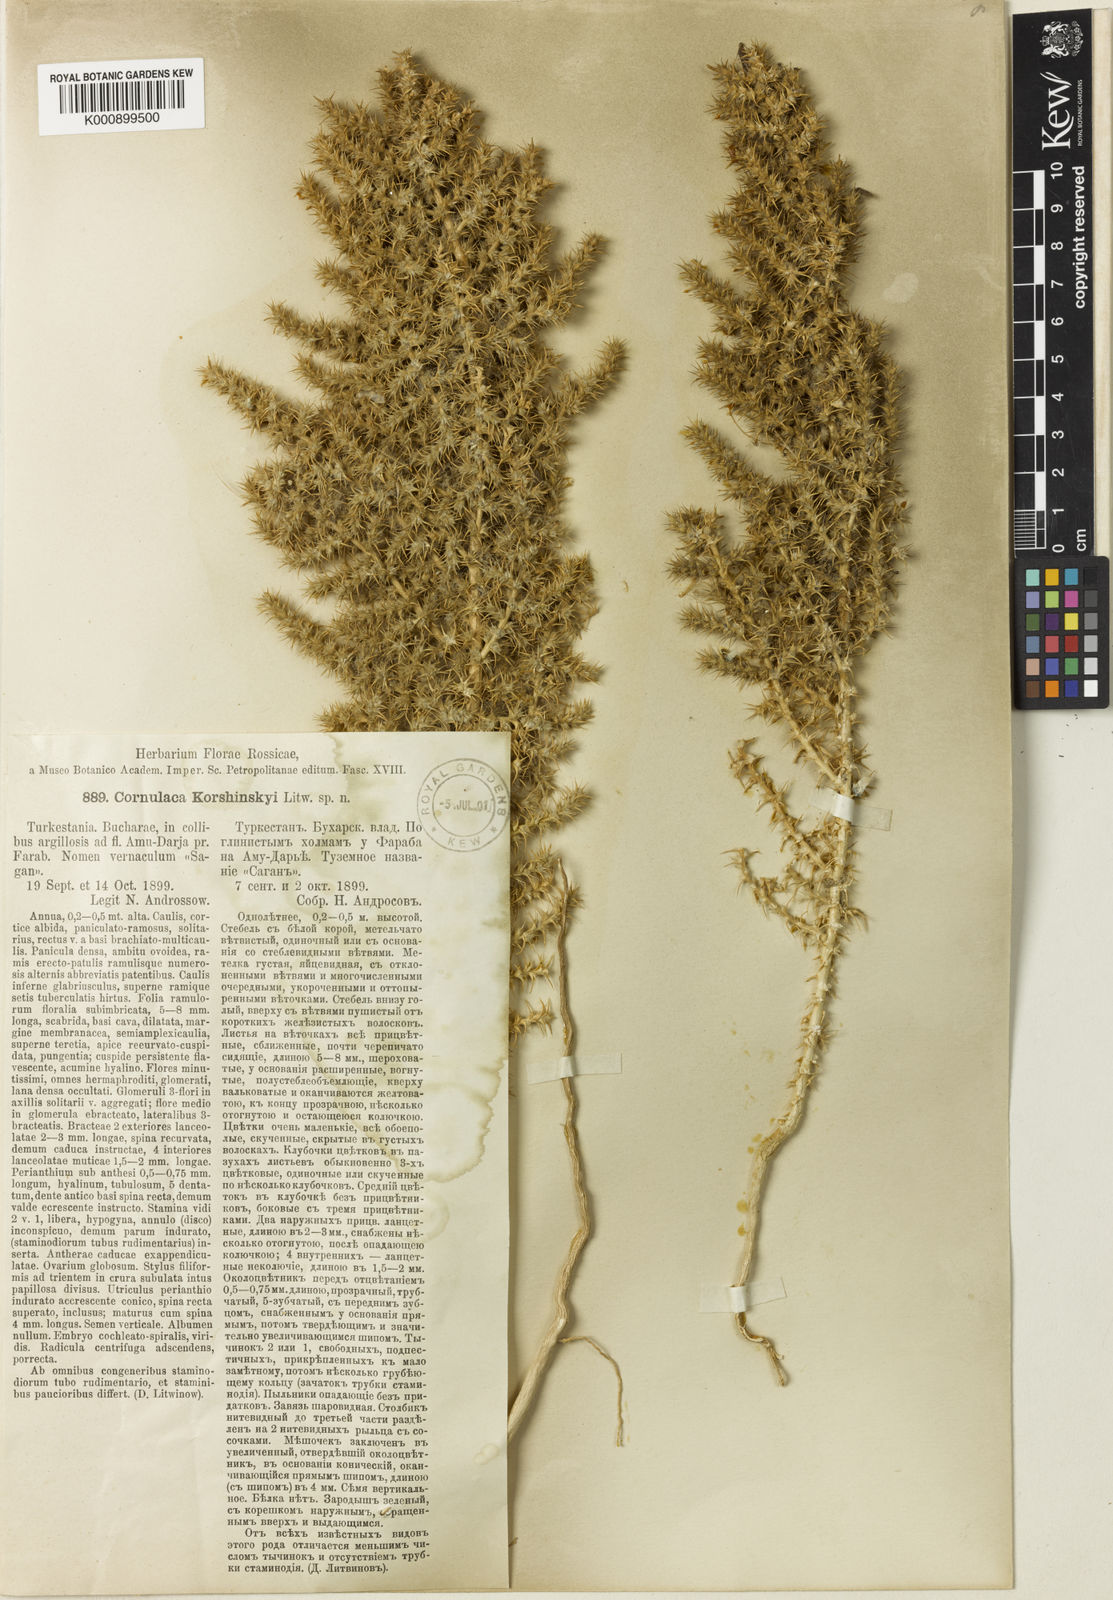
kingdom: Plantae
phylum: Tracheophyta
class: Magnoliopsida
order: Caryophyllales
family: Amaranthaceae
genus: Cornulaca
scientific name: Cornulaca korshinskyi
